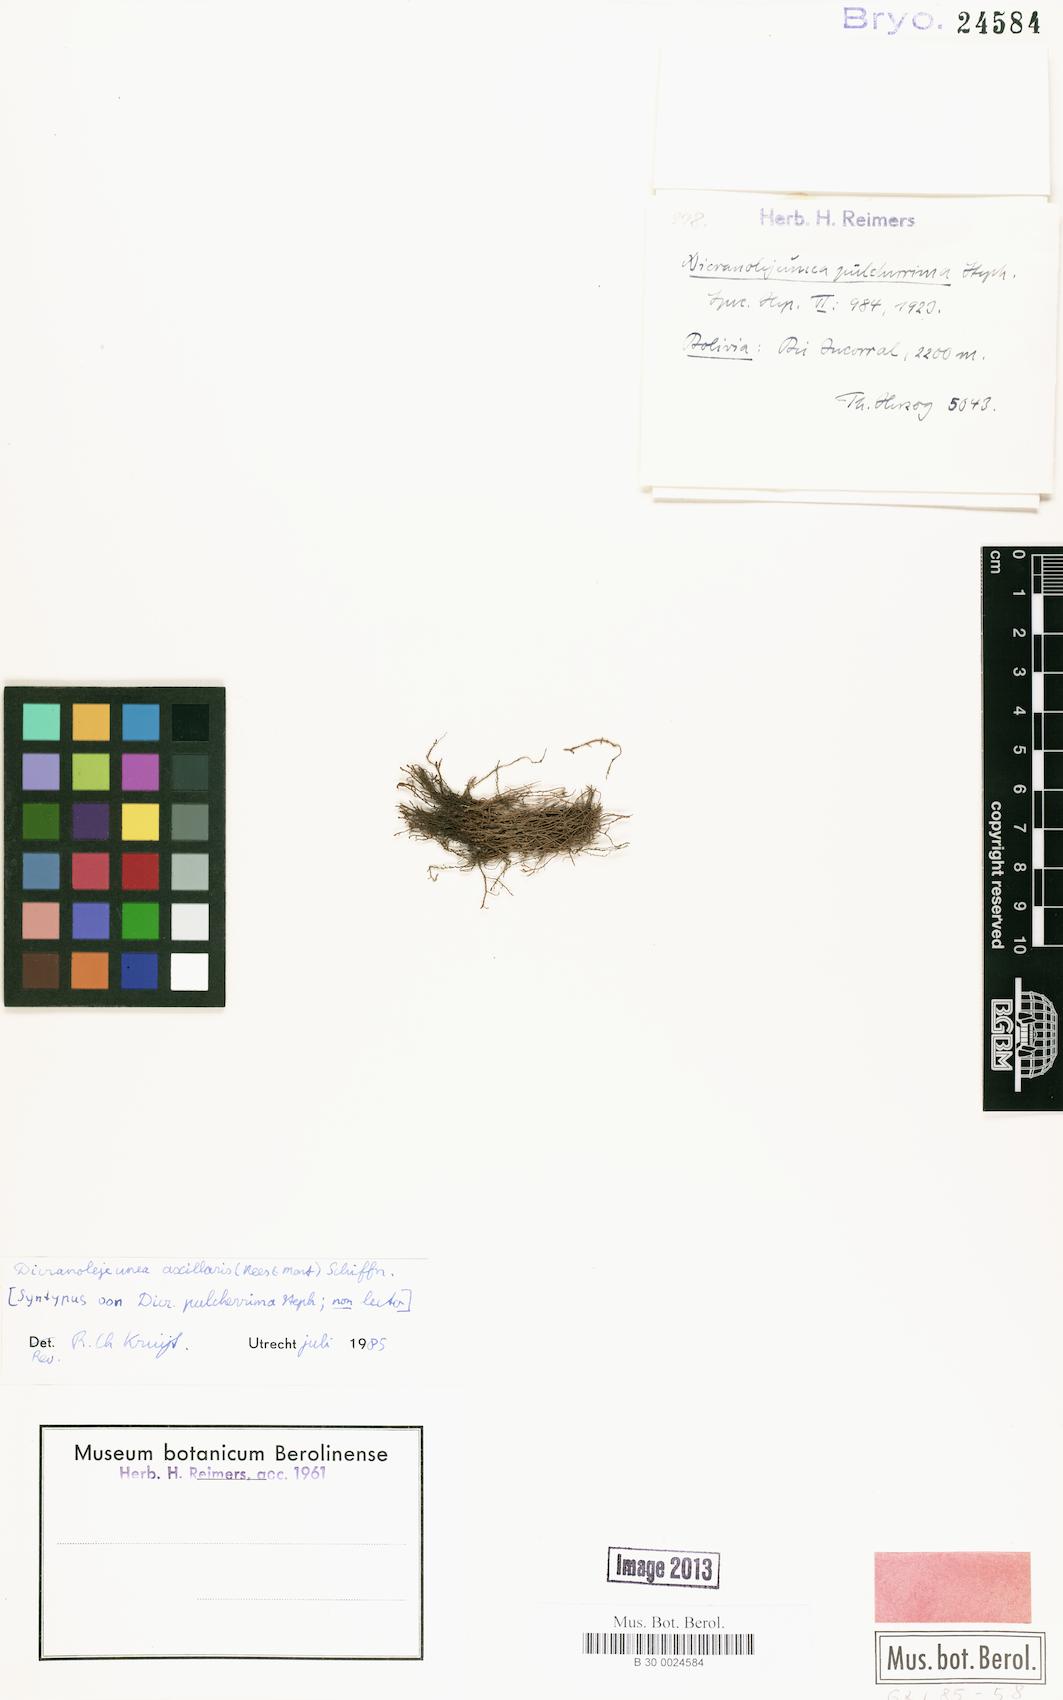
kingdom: Plantae
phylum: Marchantiophyta
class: Jungermanniopsida
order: Porellales
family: Lejeuneaceae
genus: Dicranolejeunea
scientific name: Dicranolejeunea axillaris
